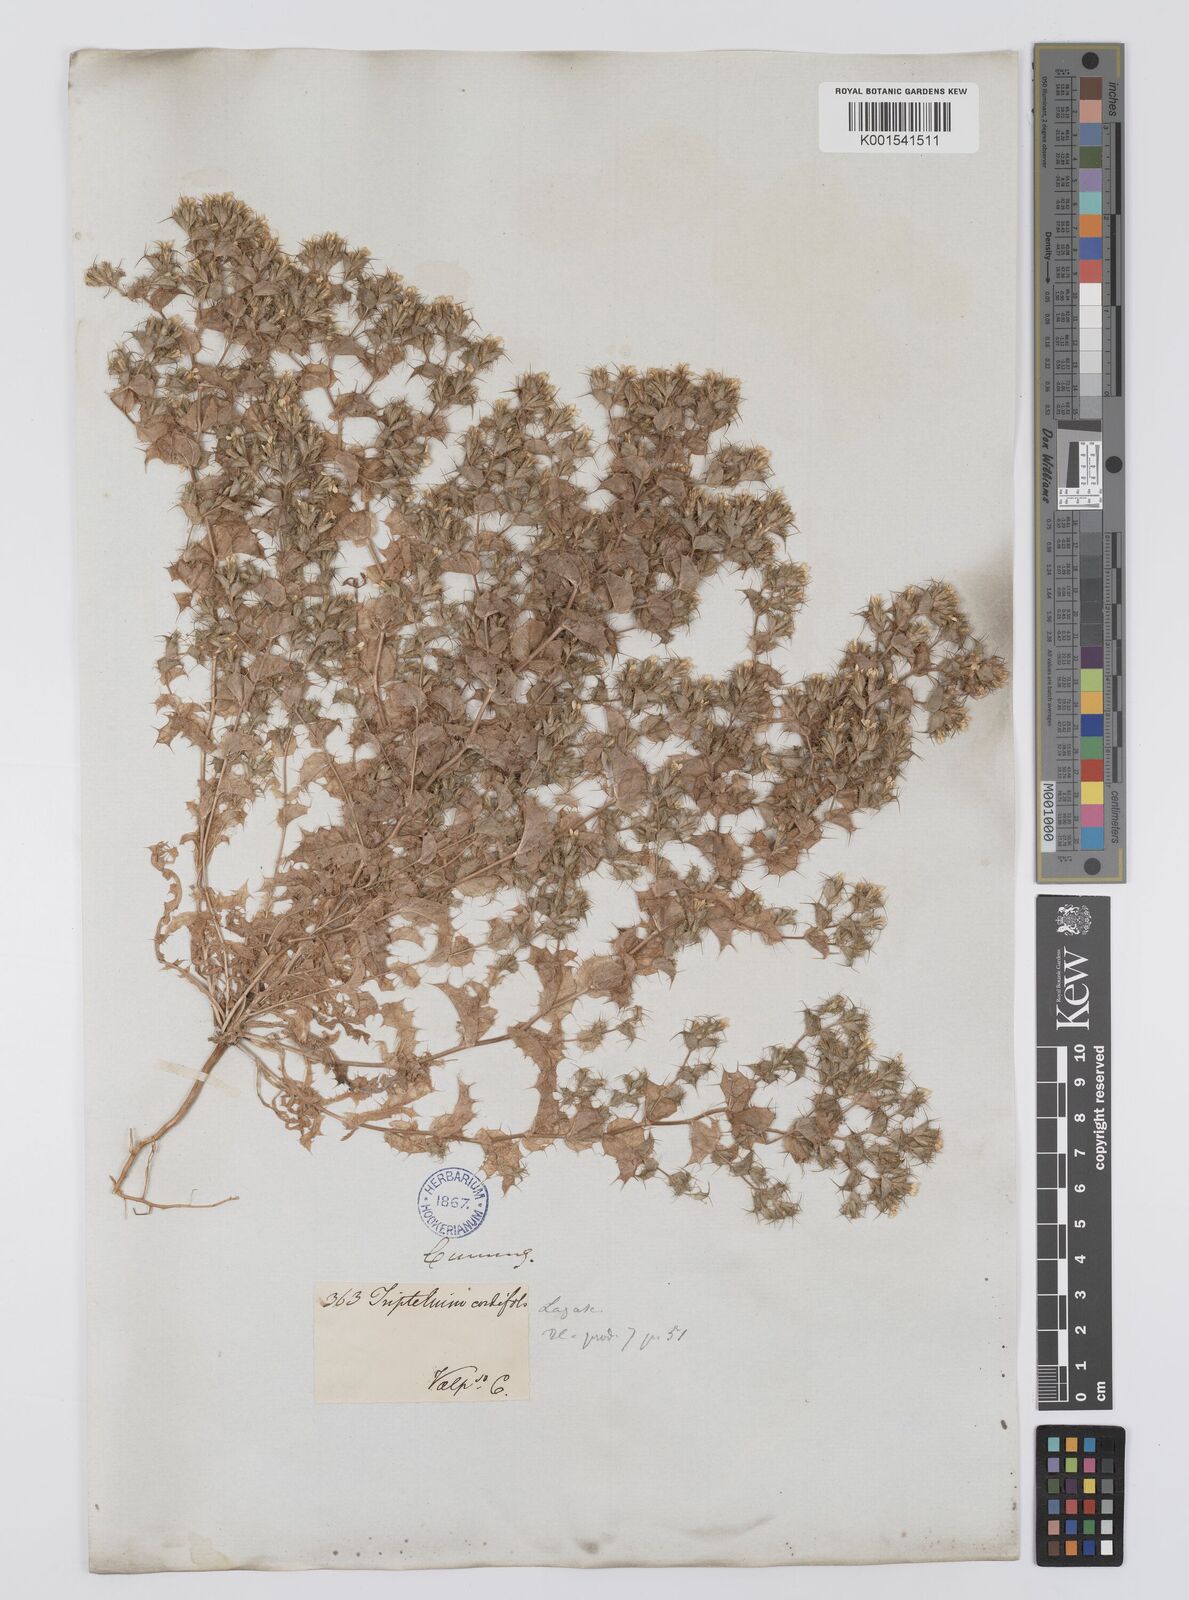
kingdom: Plantae
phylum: Tracheophyta
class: Magnoliopsida
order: Asterales
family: Asteraceae
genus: Triptilion
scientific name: Triptilion cordifolium
